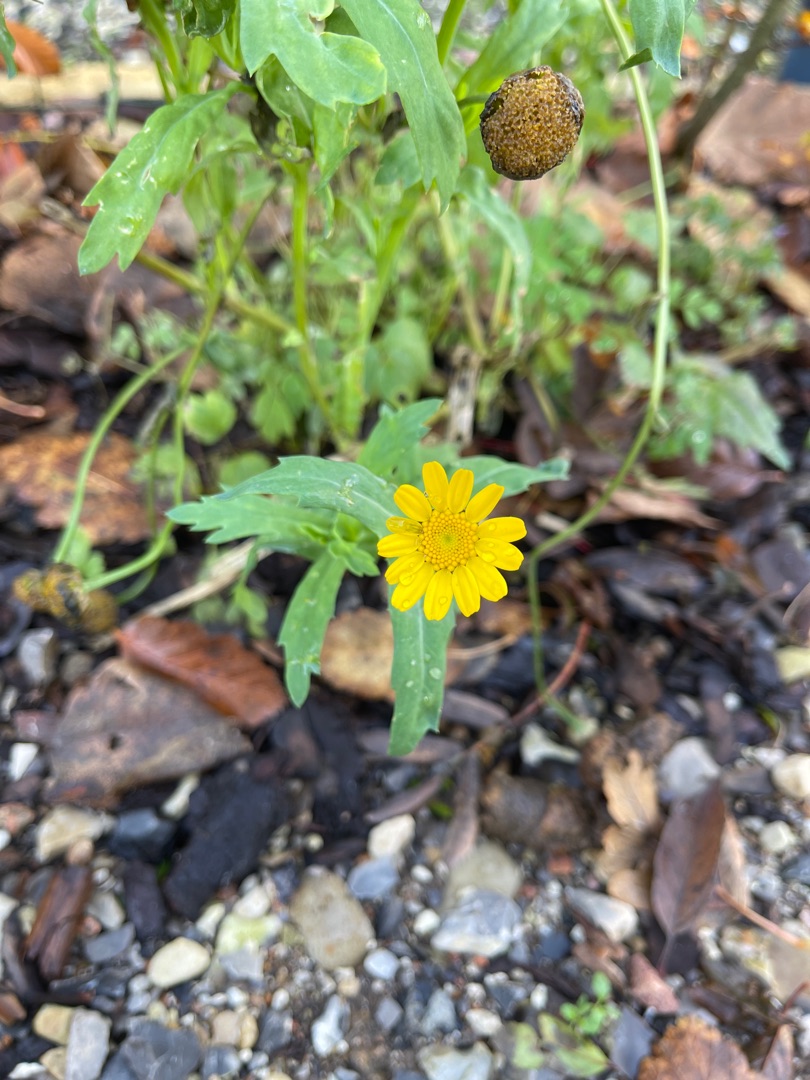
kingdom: Plantae
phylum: Tracheophyta
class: Magnoliopsida
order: Asterales
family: Asteraceae
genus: Glebionis
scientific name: Glebionis segetum
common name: Gul okseøje
